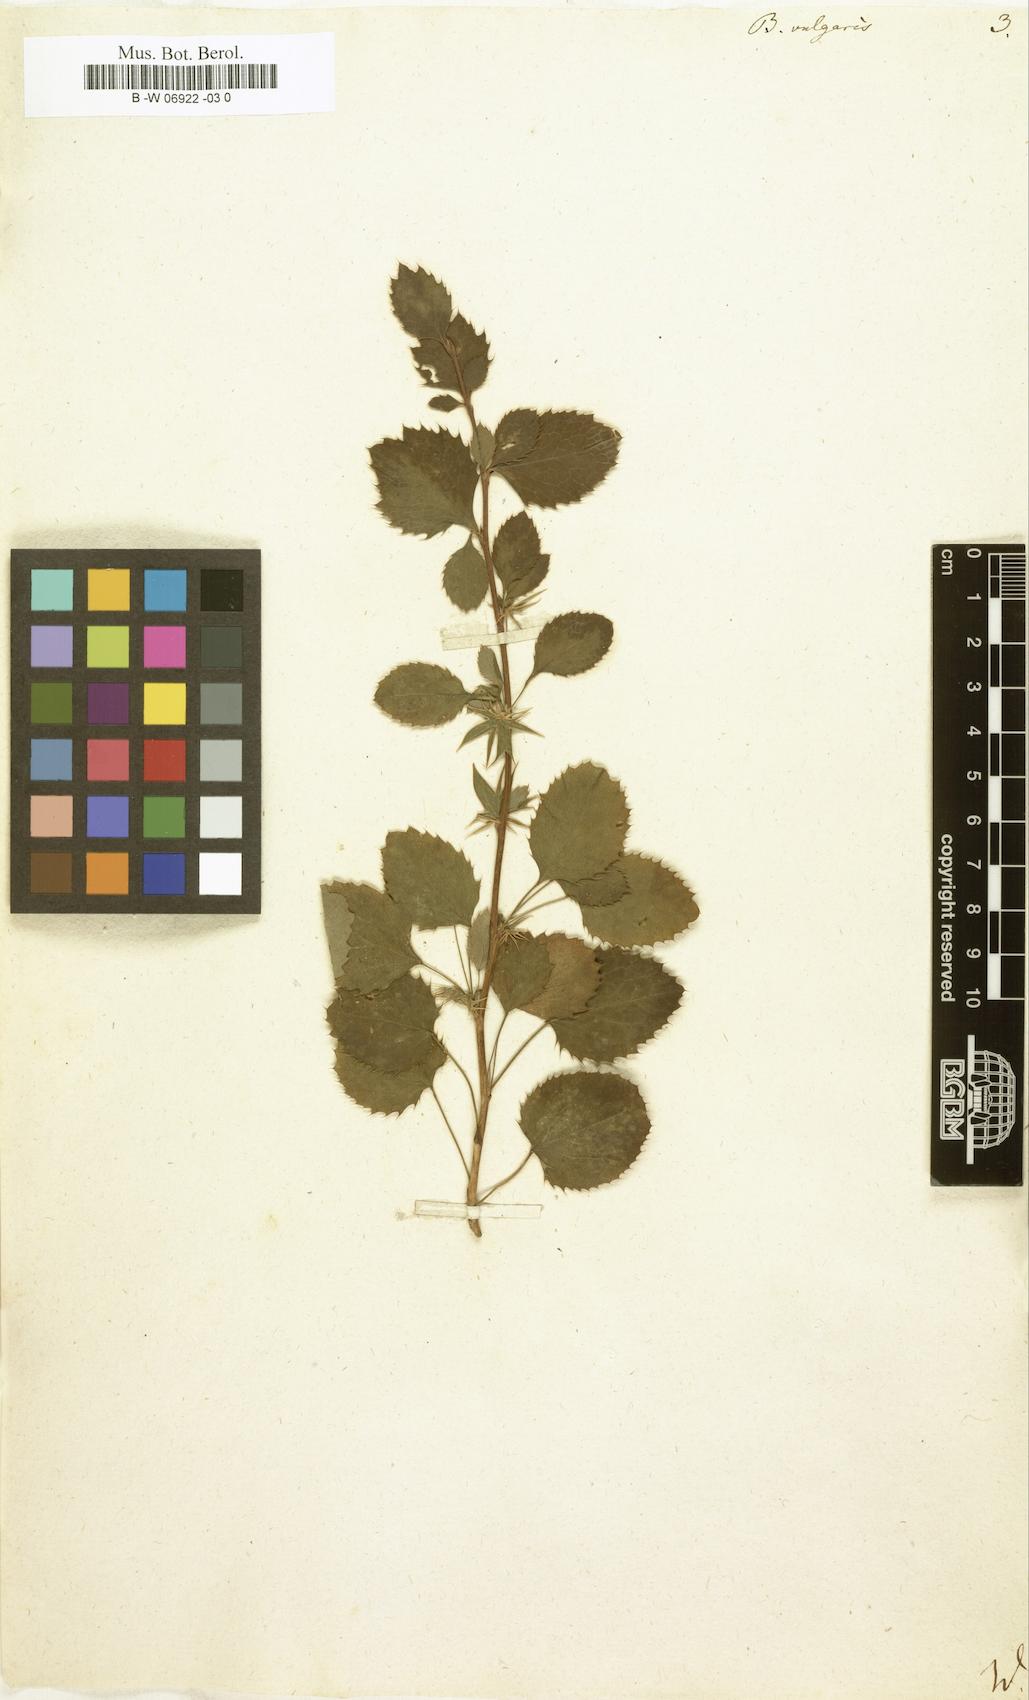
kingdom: Plantae
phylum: Tracheophyta
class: Magnoliopsida
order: Ranunculales
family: Berberidaceae
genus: Berberis
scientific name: Berberis vulgaris
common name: Barberry
